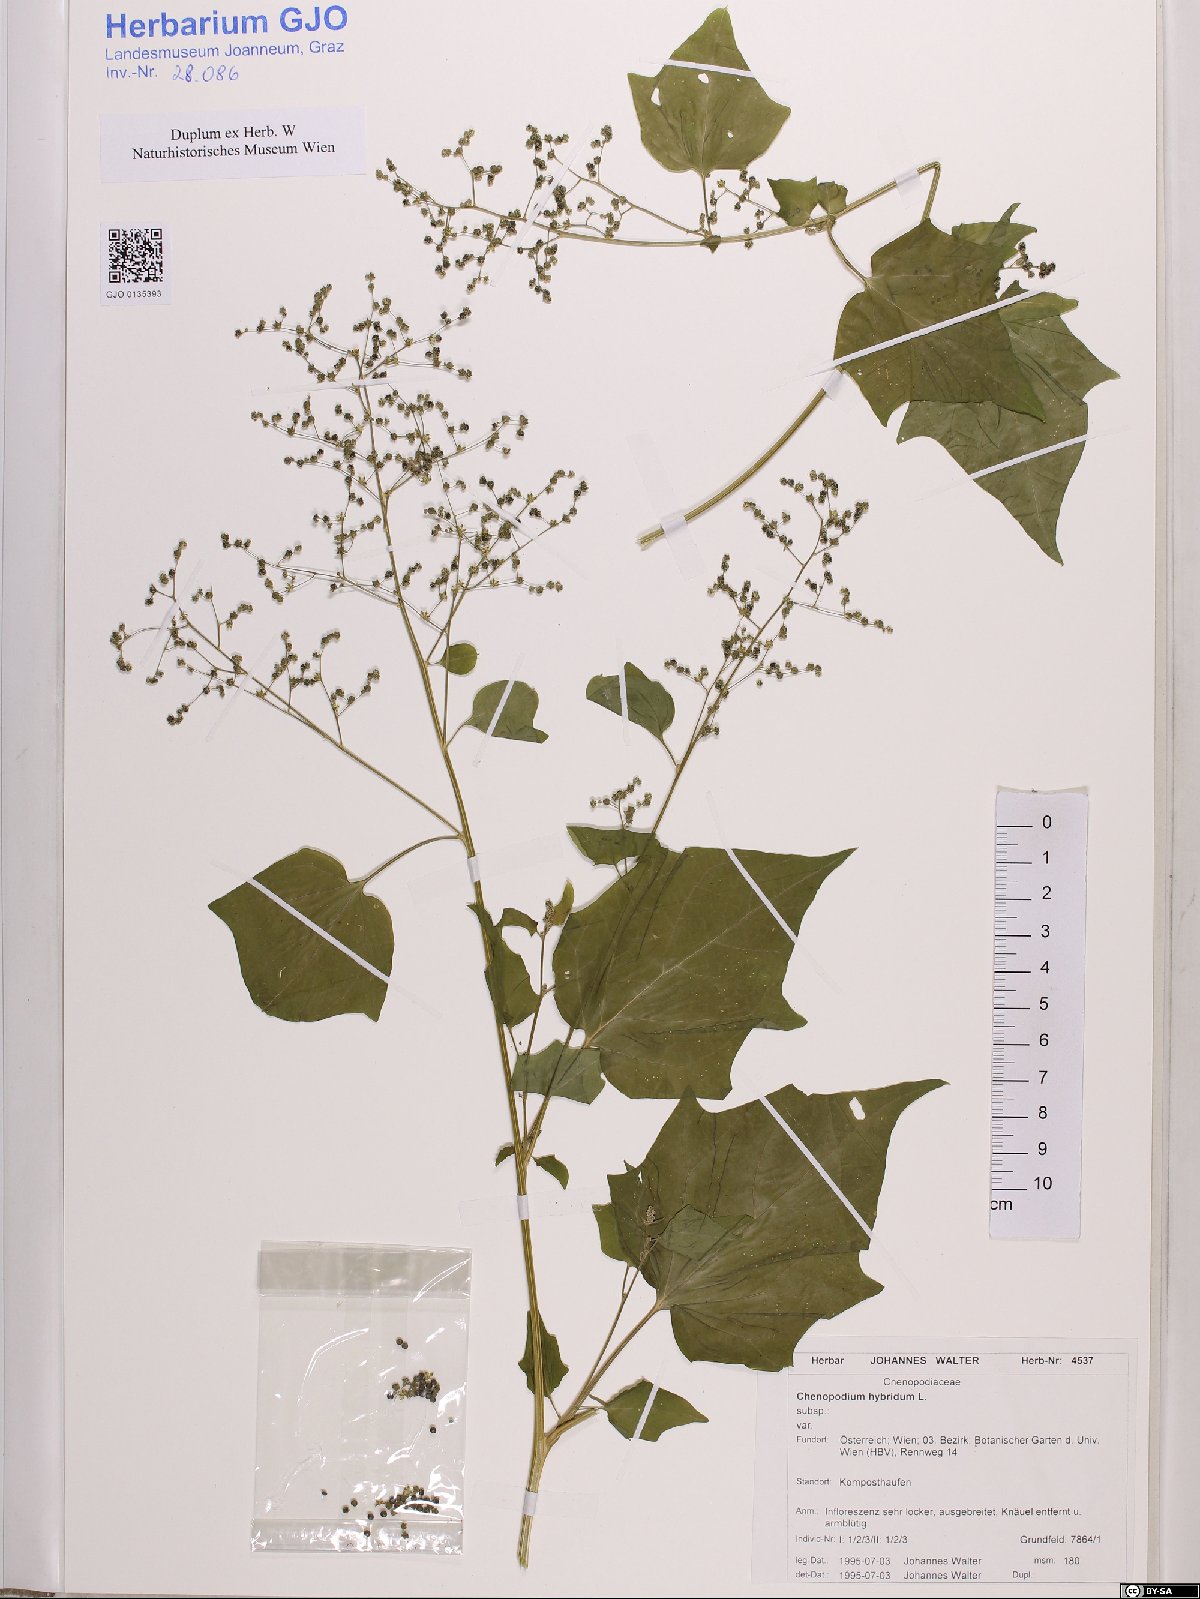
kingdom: Plantae
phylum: Tracheophyta
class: Magnoliopsida
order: Caryophyllales
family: Amaranthaceae
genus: Chenopodiastrum
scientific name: Chenopodiastrum hybridum
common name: Mapleleaf goosefoot
